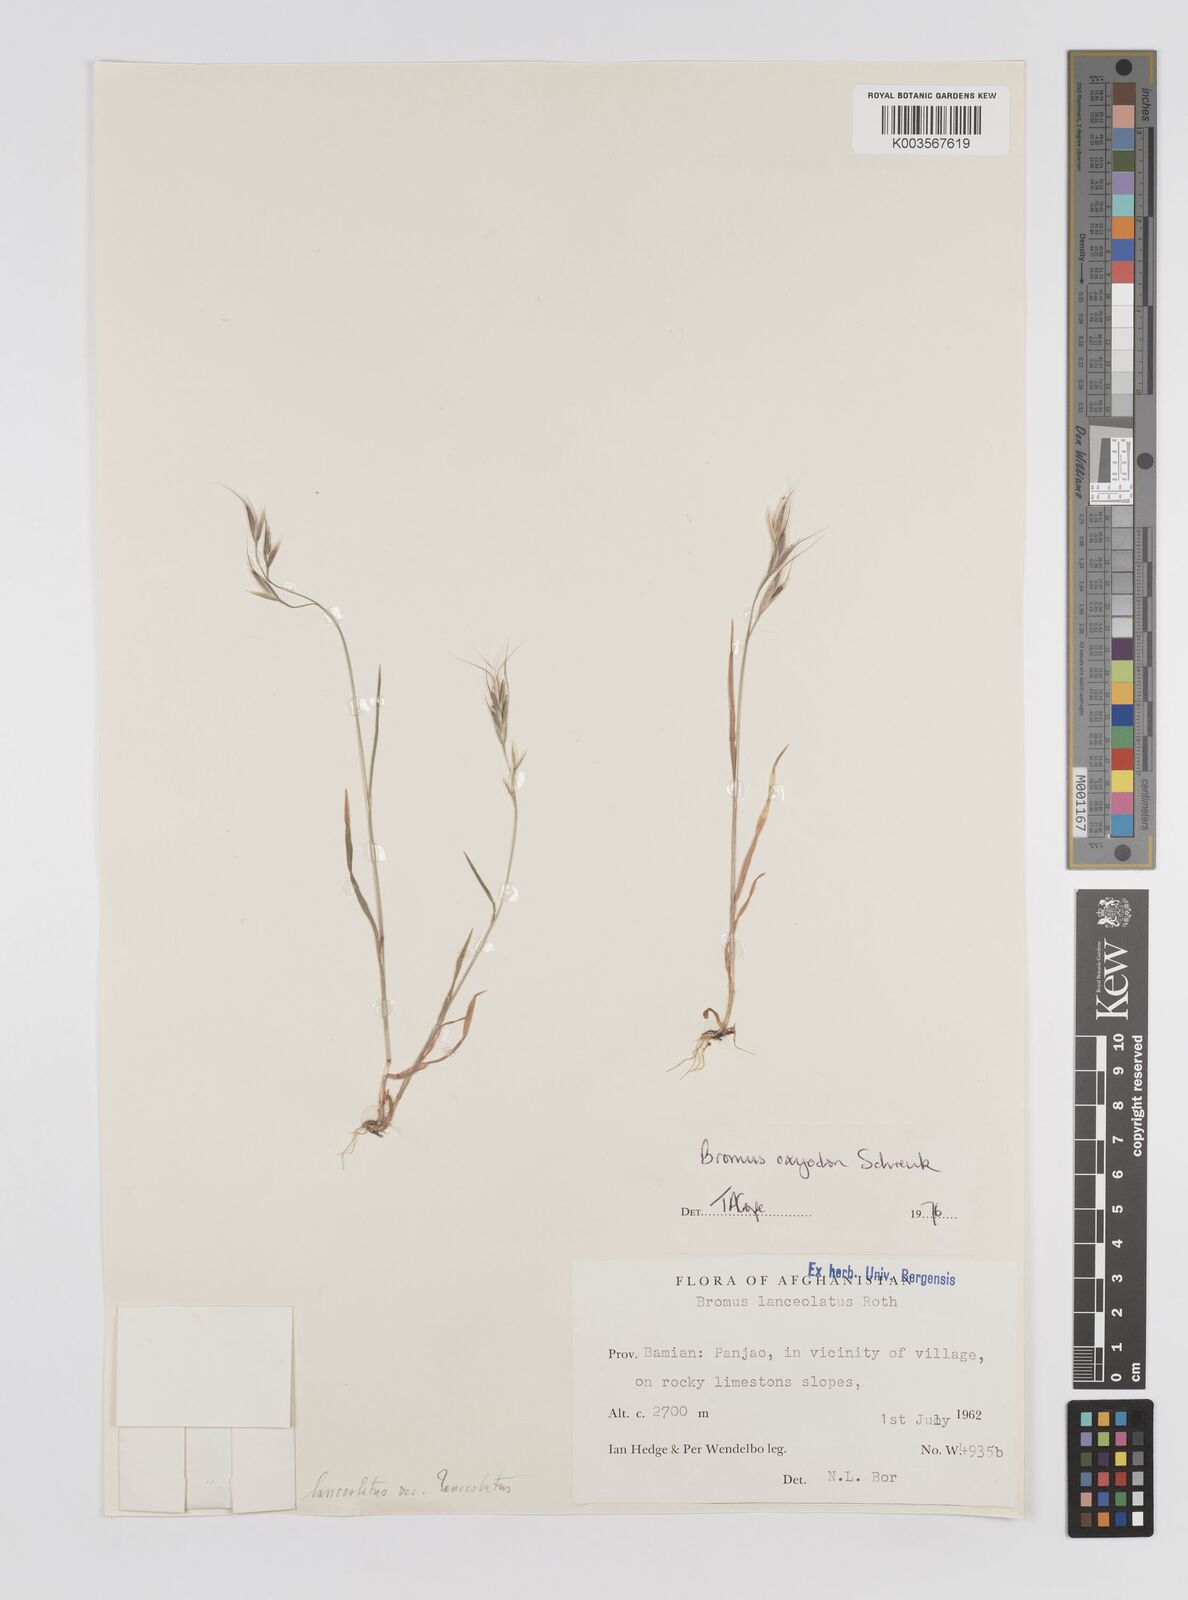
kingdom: Plantae
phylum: Tracheophyta
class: Liliopsida
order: Poales
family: Poaceae
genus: Bromus
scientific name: Bromus oxyodon
